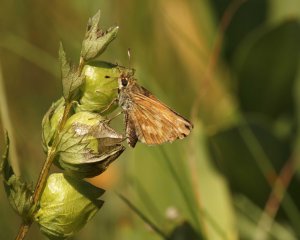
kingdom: Animalia
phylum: Arthropoda
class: Insecta
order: Lepidoptera
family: Hesperiidae
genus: Hesperia
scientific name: Hesperia sassacus
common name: Sassacus Skipper
